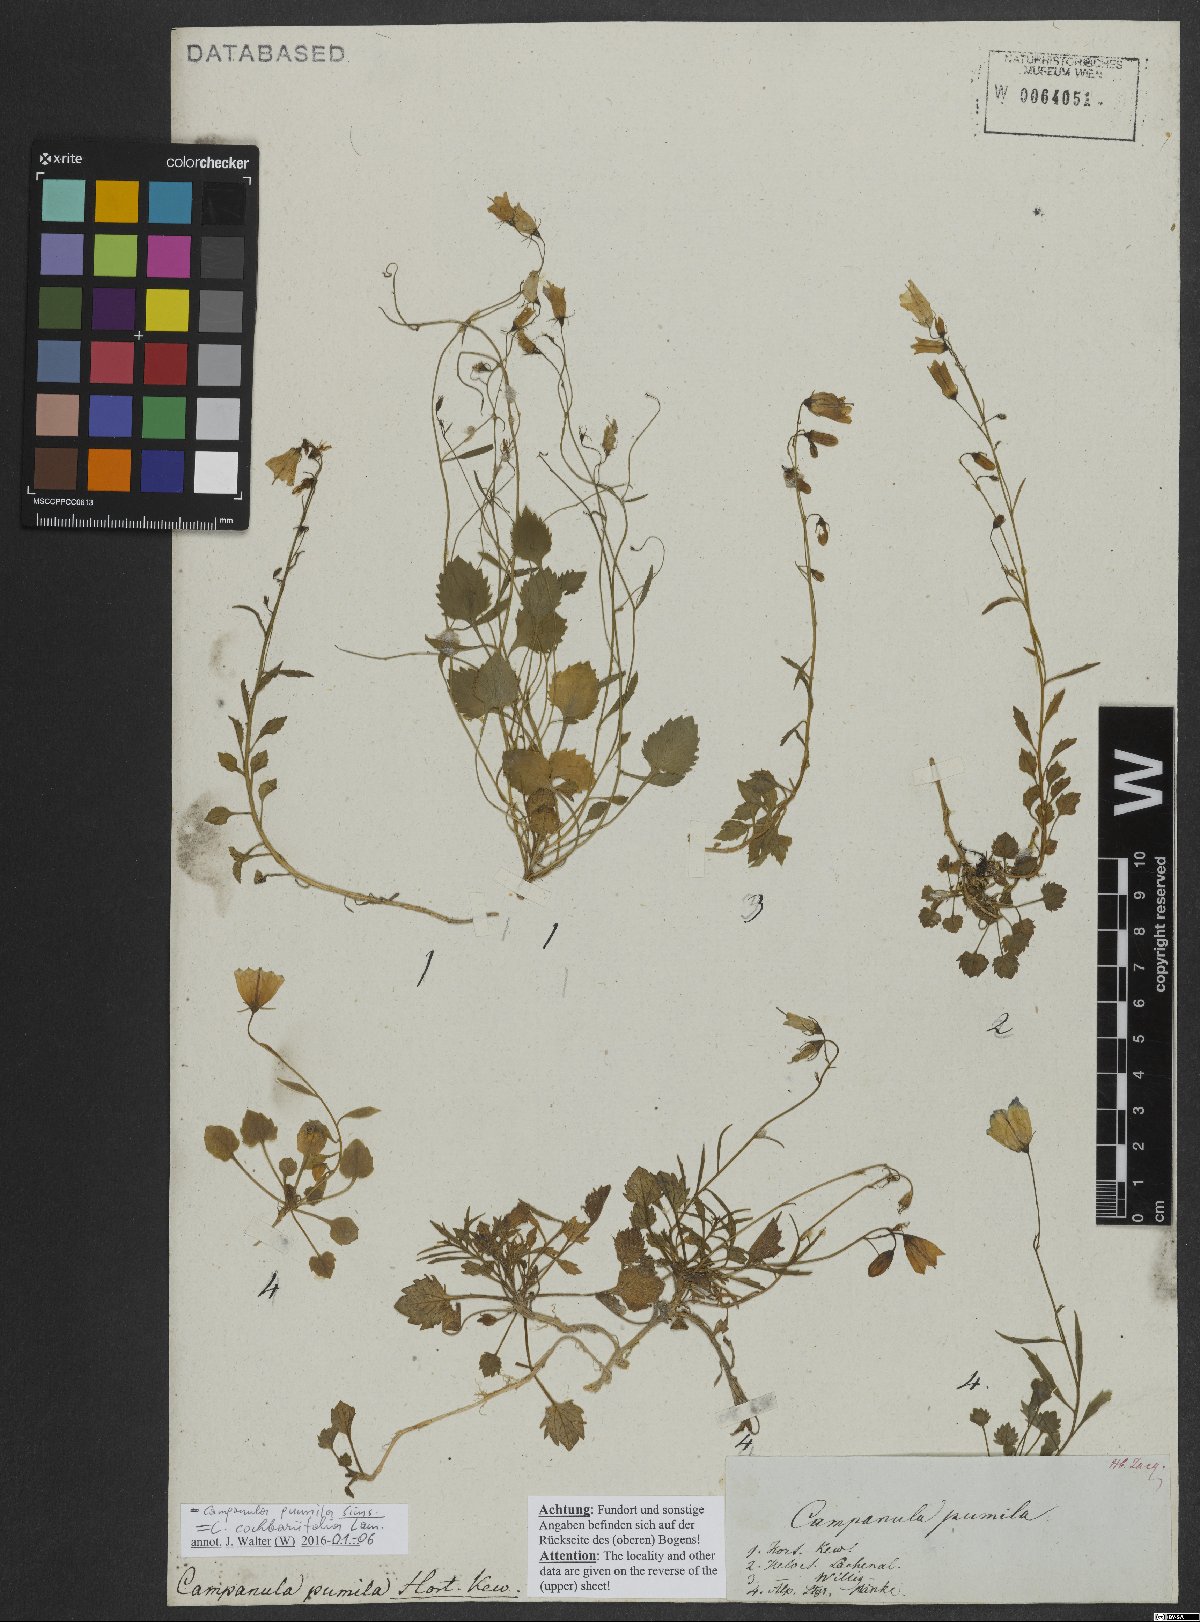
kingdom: Plantae
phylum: Tracheophyta
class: Magnoliopsida
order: Asterales
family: Campanulaceae
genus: Campanula
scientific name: Campanula cochleariifolia
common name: Fairies'-thimbles
